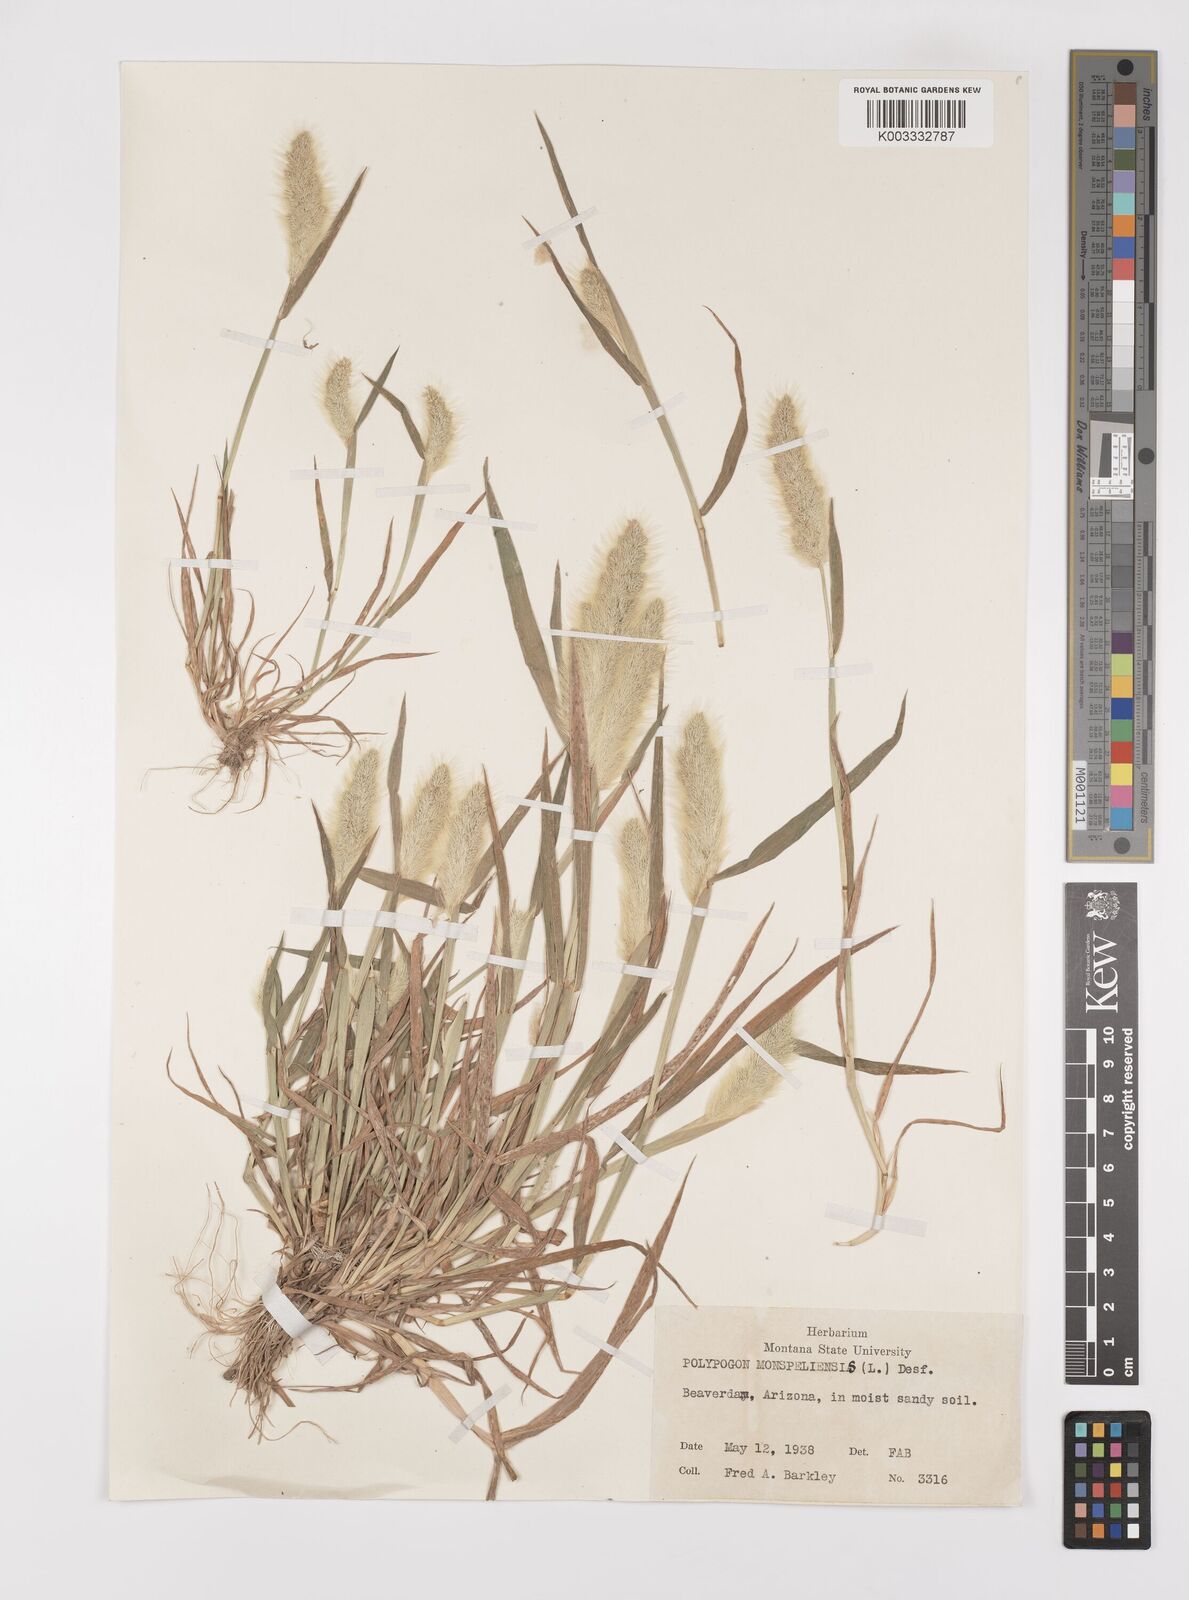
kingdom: Plantae
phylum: Tracheophyta
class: Liliopsida
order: Poales
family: Poaceae
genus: Polypogon
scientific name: Polypogon monspeliensis
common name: Annual rabbitsfoot grass
